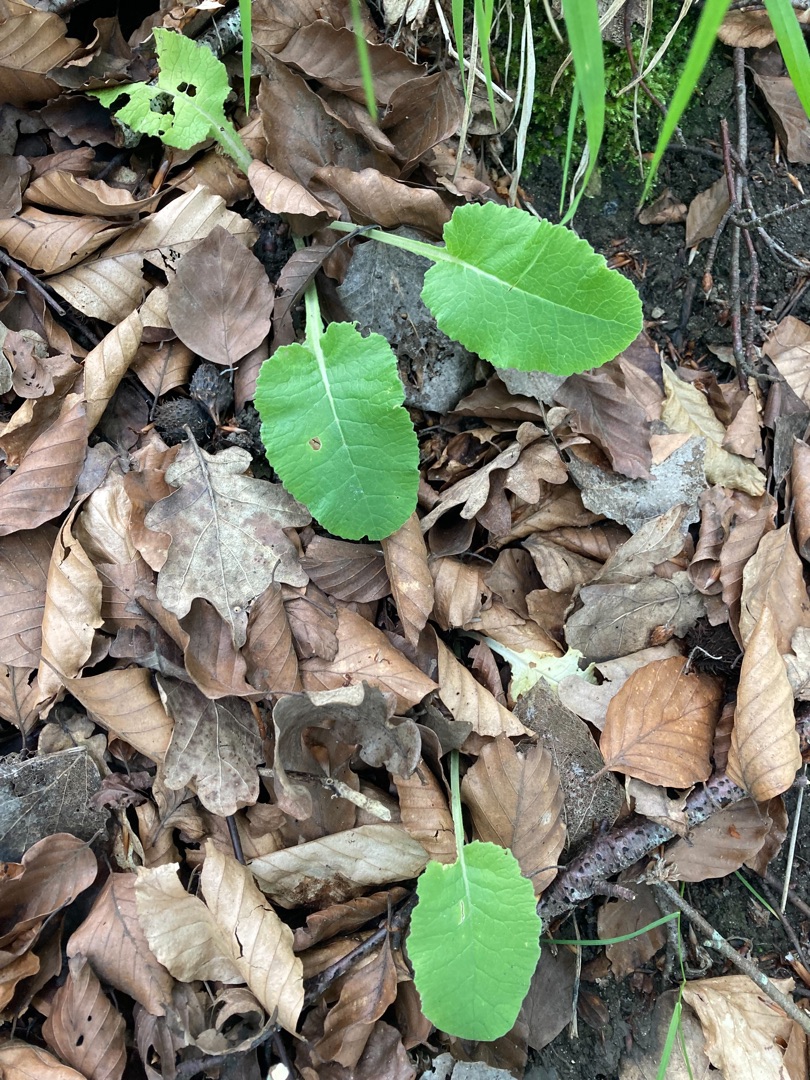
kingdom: Plantae
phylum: Tracheophyta
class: Magnoliopsida
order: Ericales
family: Primulaceae
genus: Primula
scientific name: Primula veris
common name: Hulkravet kodriver
